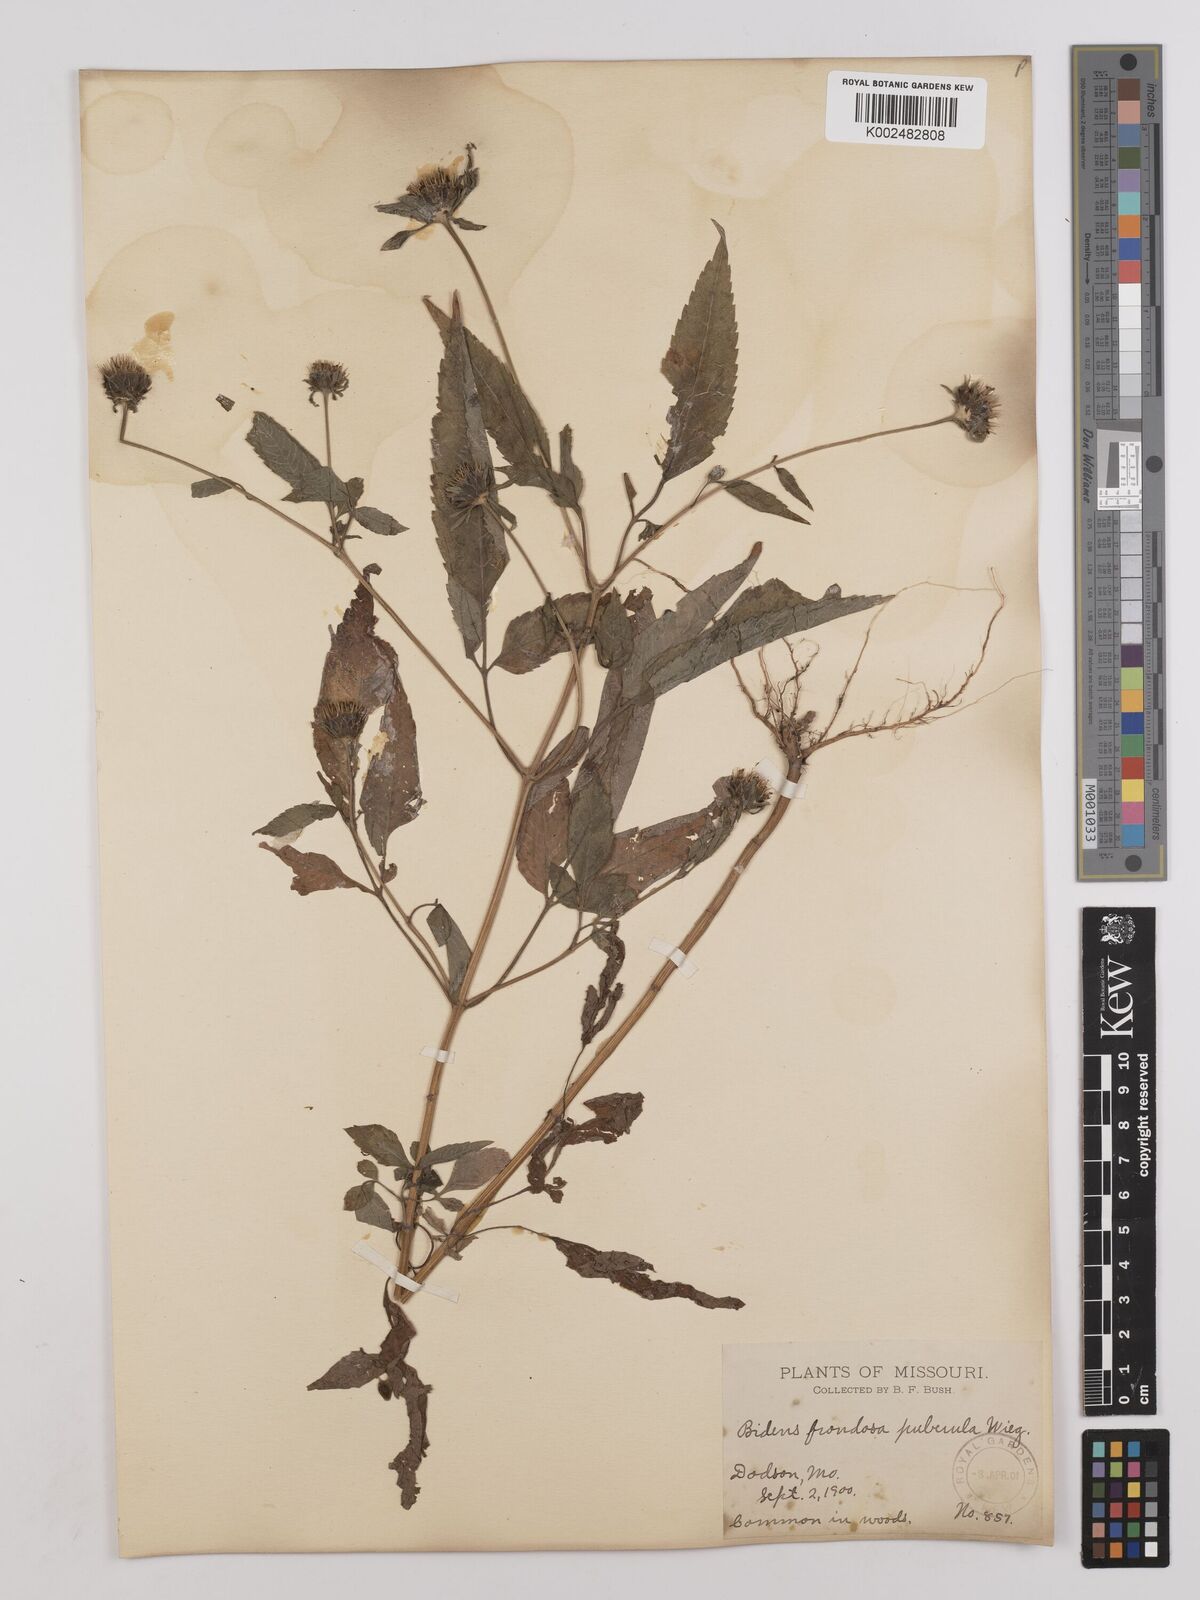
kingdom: Plantae
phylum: Tracheophyta
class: Magnoliopsida
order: Asterales
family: Asteraceae
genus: Bidens
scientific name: Bidens vulgata
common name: Tall beggarticks
